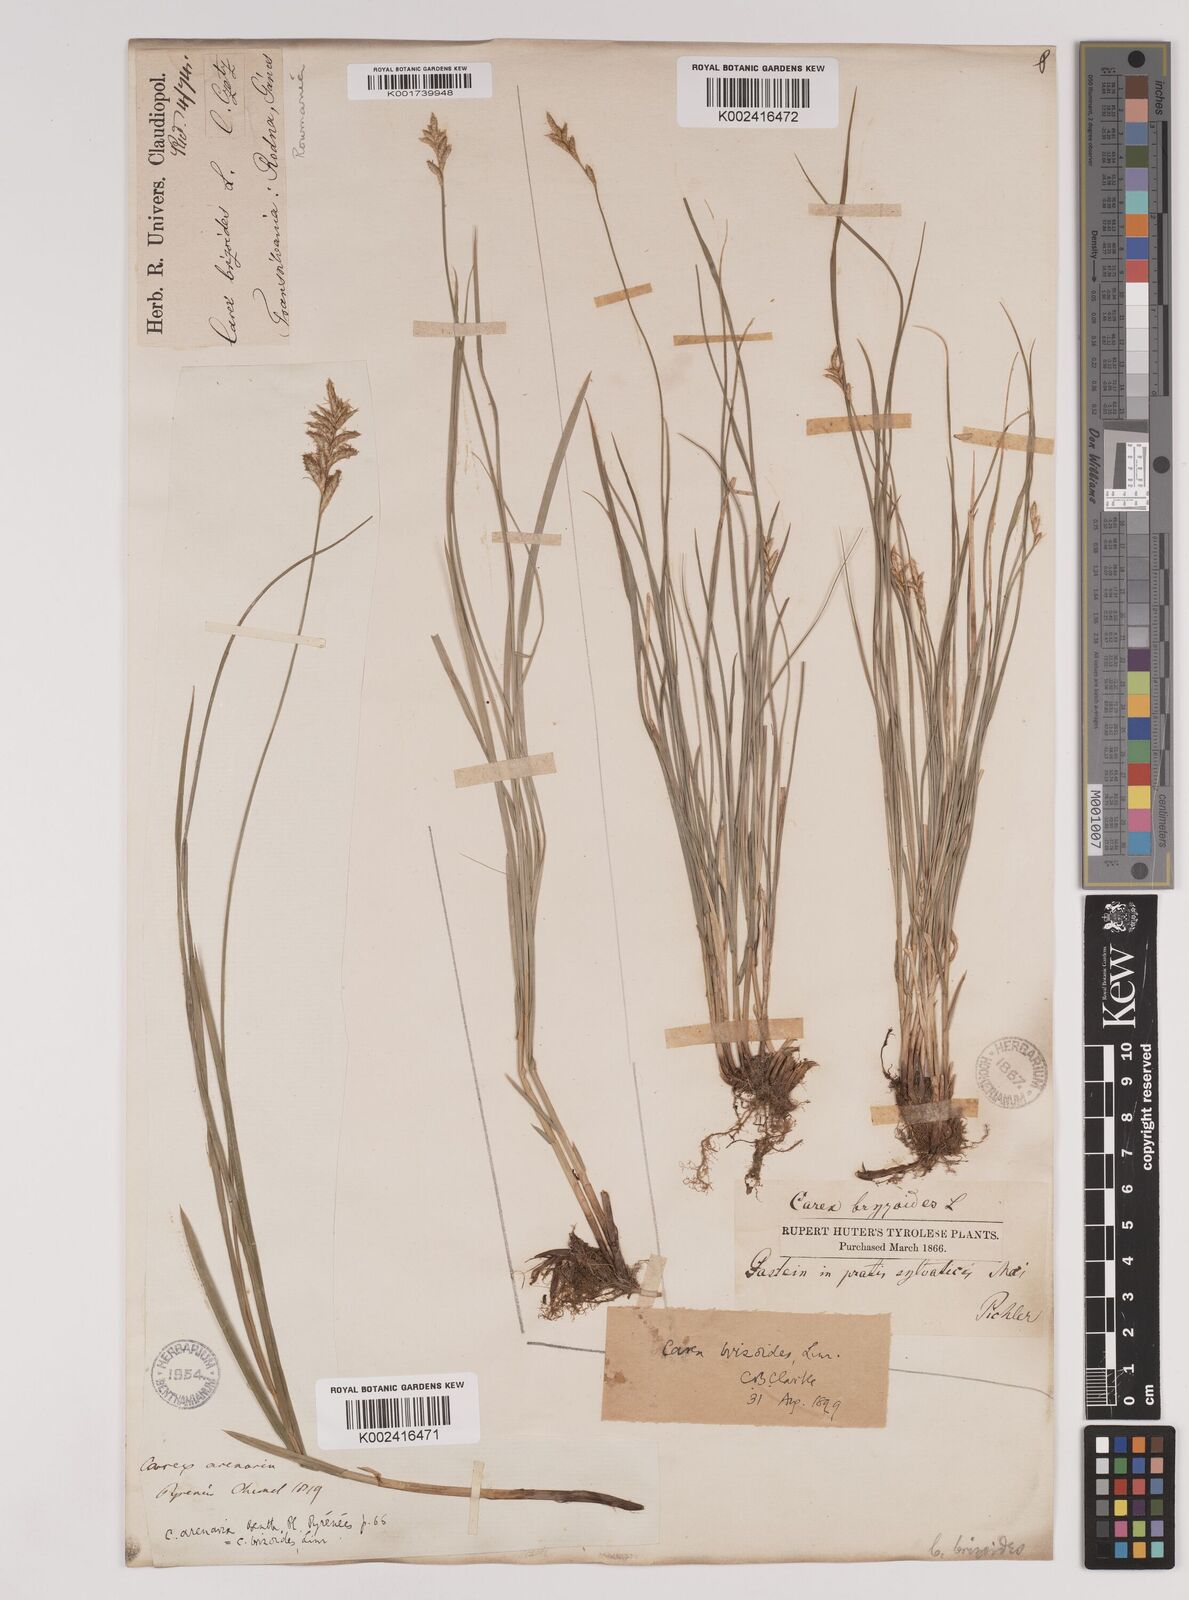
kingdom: Plantae
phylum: Tracheophyta
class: Liliopsida
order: Poales
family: Cyperaceae
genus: Carex
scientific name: Carex brizoides
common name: Quaking-grass sedge
